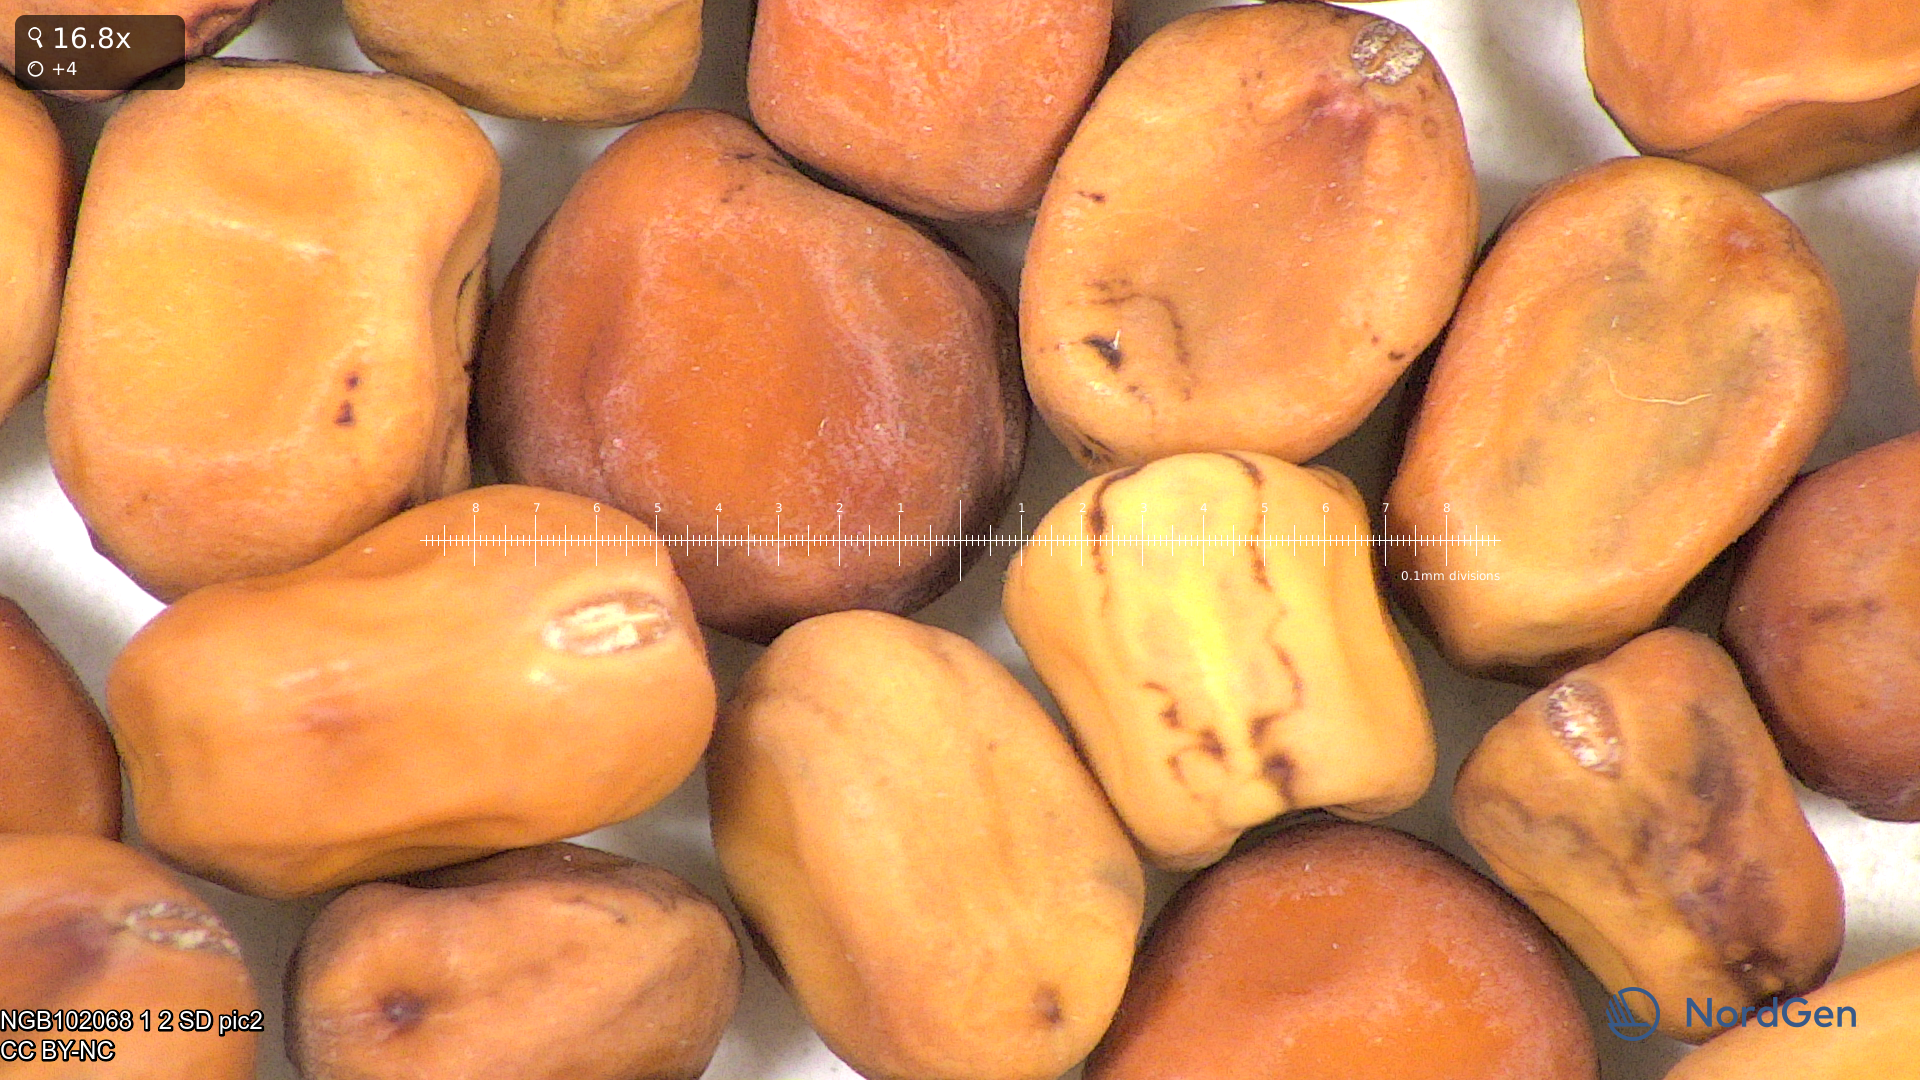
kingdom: Plantae
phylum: Tracheophyta
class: Magnoliopsida
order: Fabales
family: Fabaceae
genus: Lathyrus
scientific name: Lathyrus oleraceus
